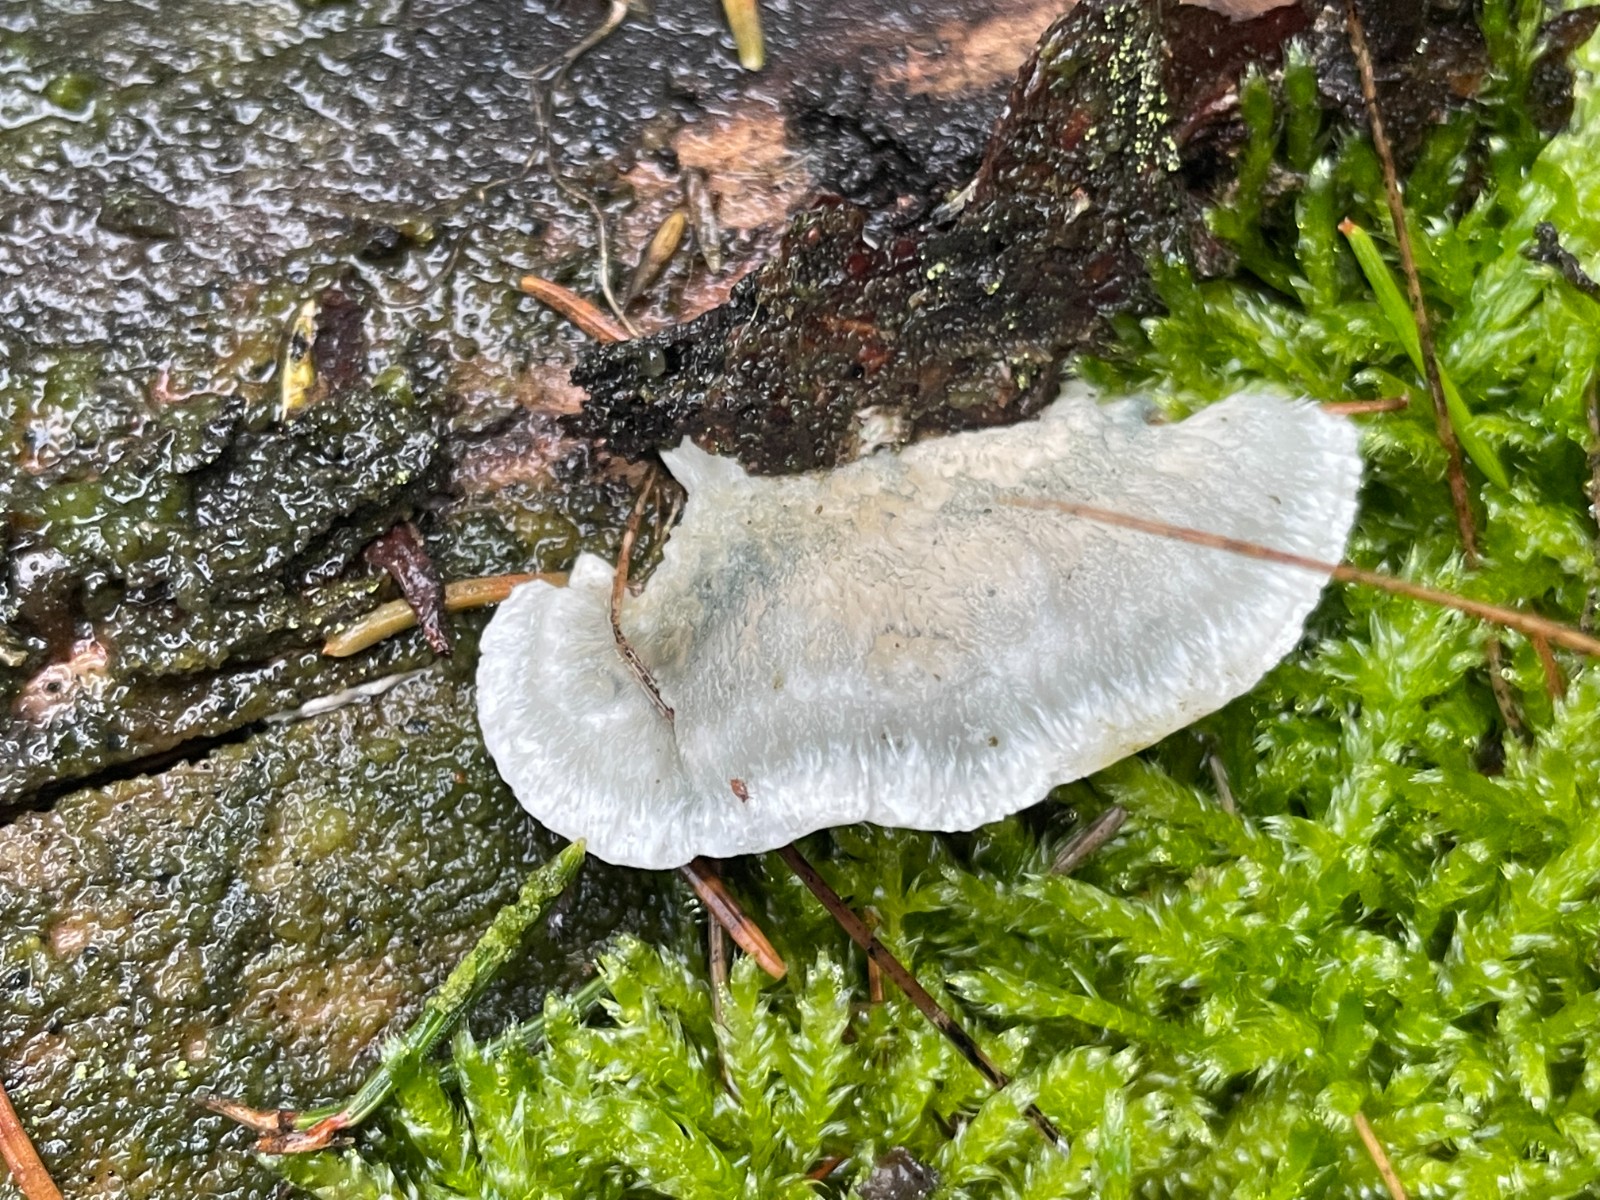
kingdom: Fungi
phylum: Basidiomycota
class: Agaricomycetes
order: Polyporales
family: Polyporaceae
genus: Cyanosporus
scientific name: Cyanosporus caesius
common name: blålig kødporesvamp
